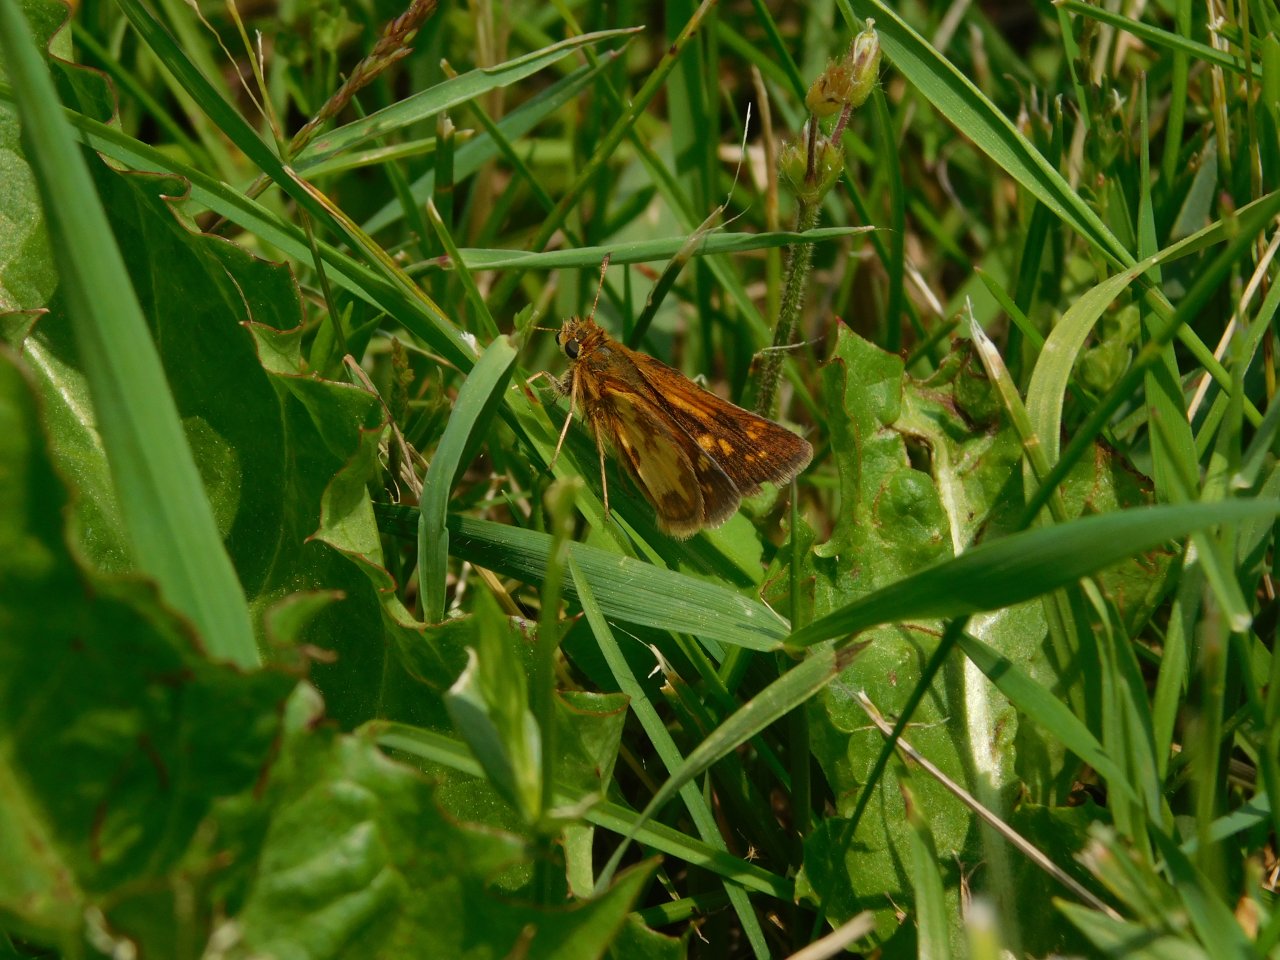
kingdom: Animalia
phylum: Arthropoda
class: Insecta
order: Lepidoptera
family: Hesperiidae
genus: Polites
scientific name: Polites coras
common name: Peck's Skipper
